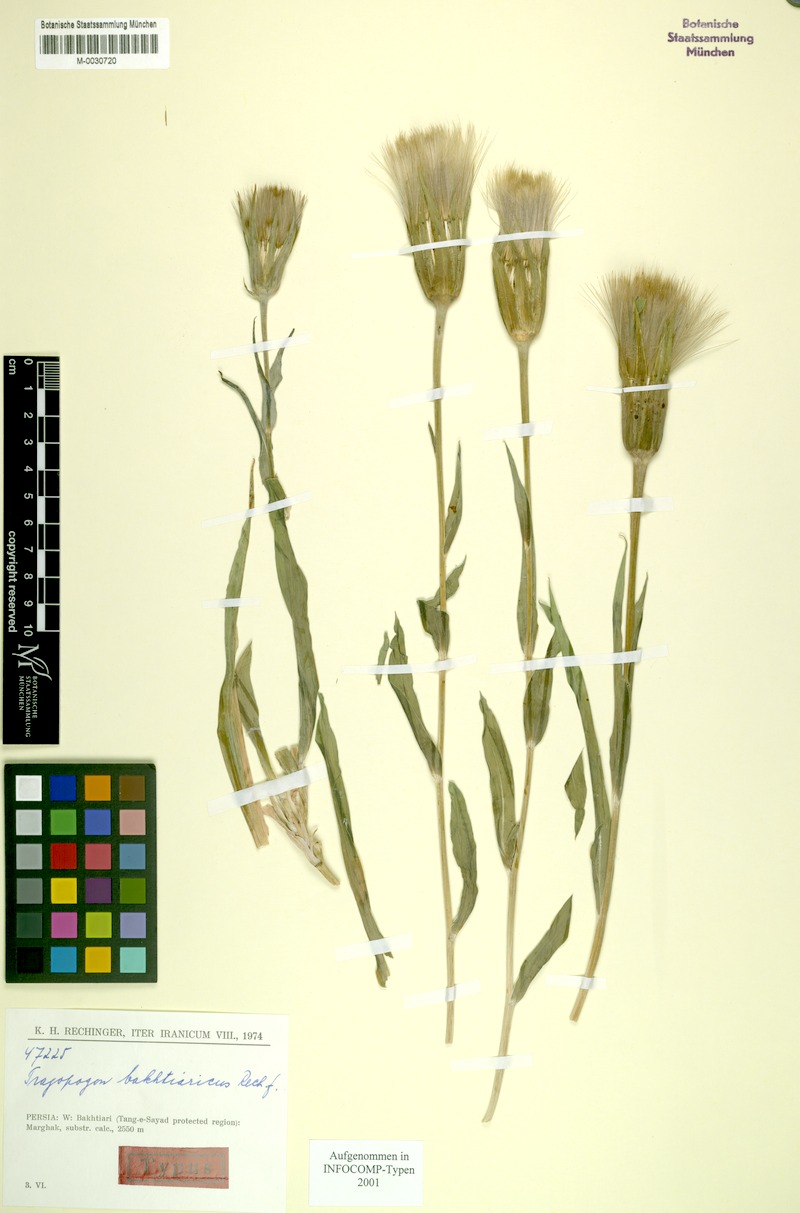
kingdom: Plantae
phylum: Tracheophyta
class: Magnoliopsida
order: Asterales
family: Asteraceae
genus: Tragopogon
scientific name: Tragopogon bakhtiaricus
